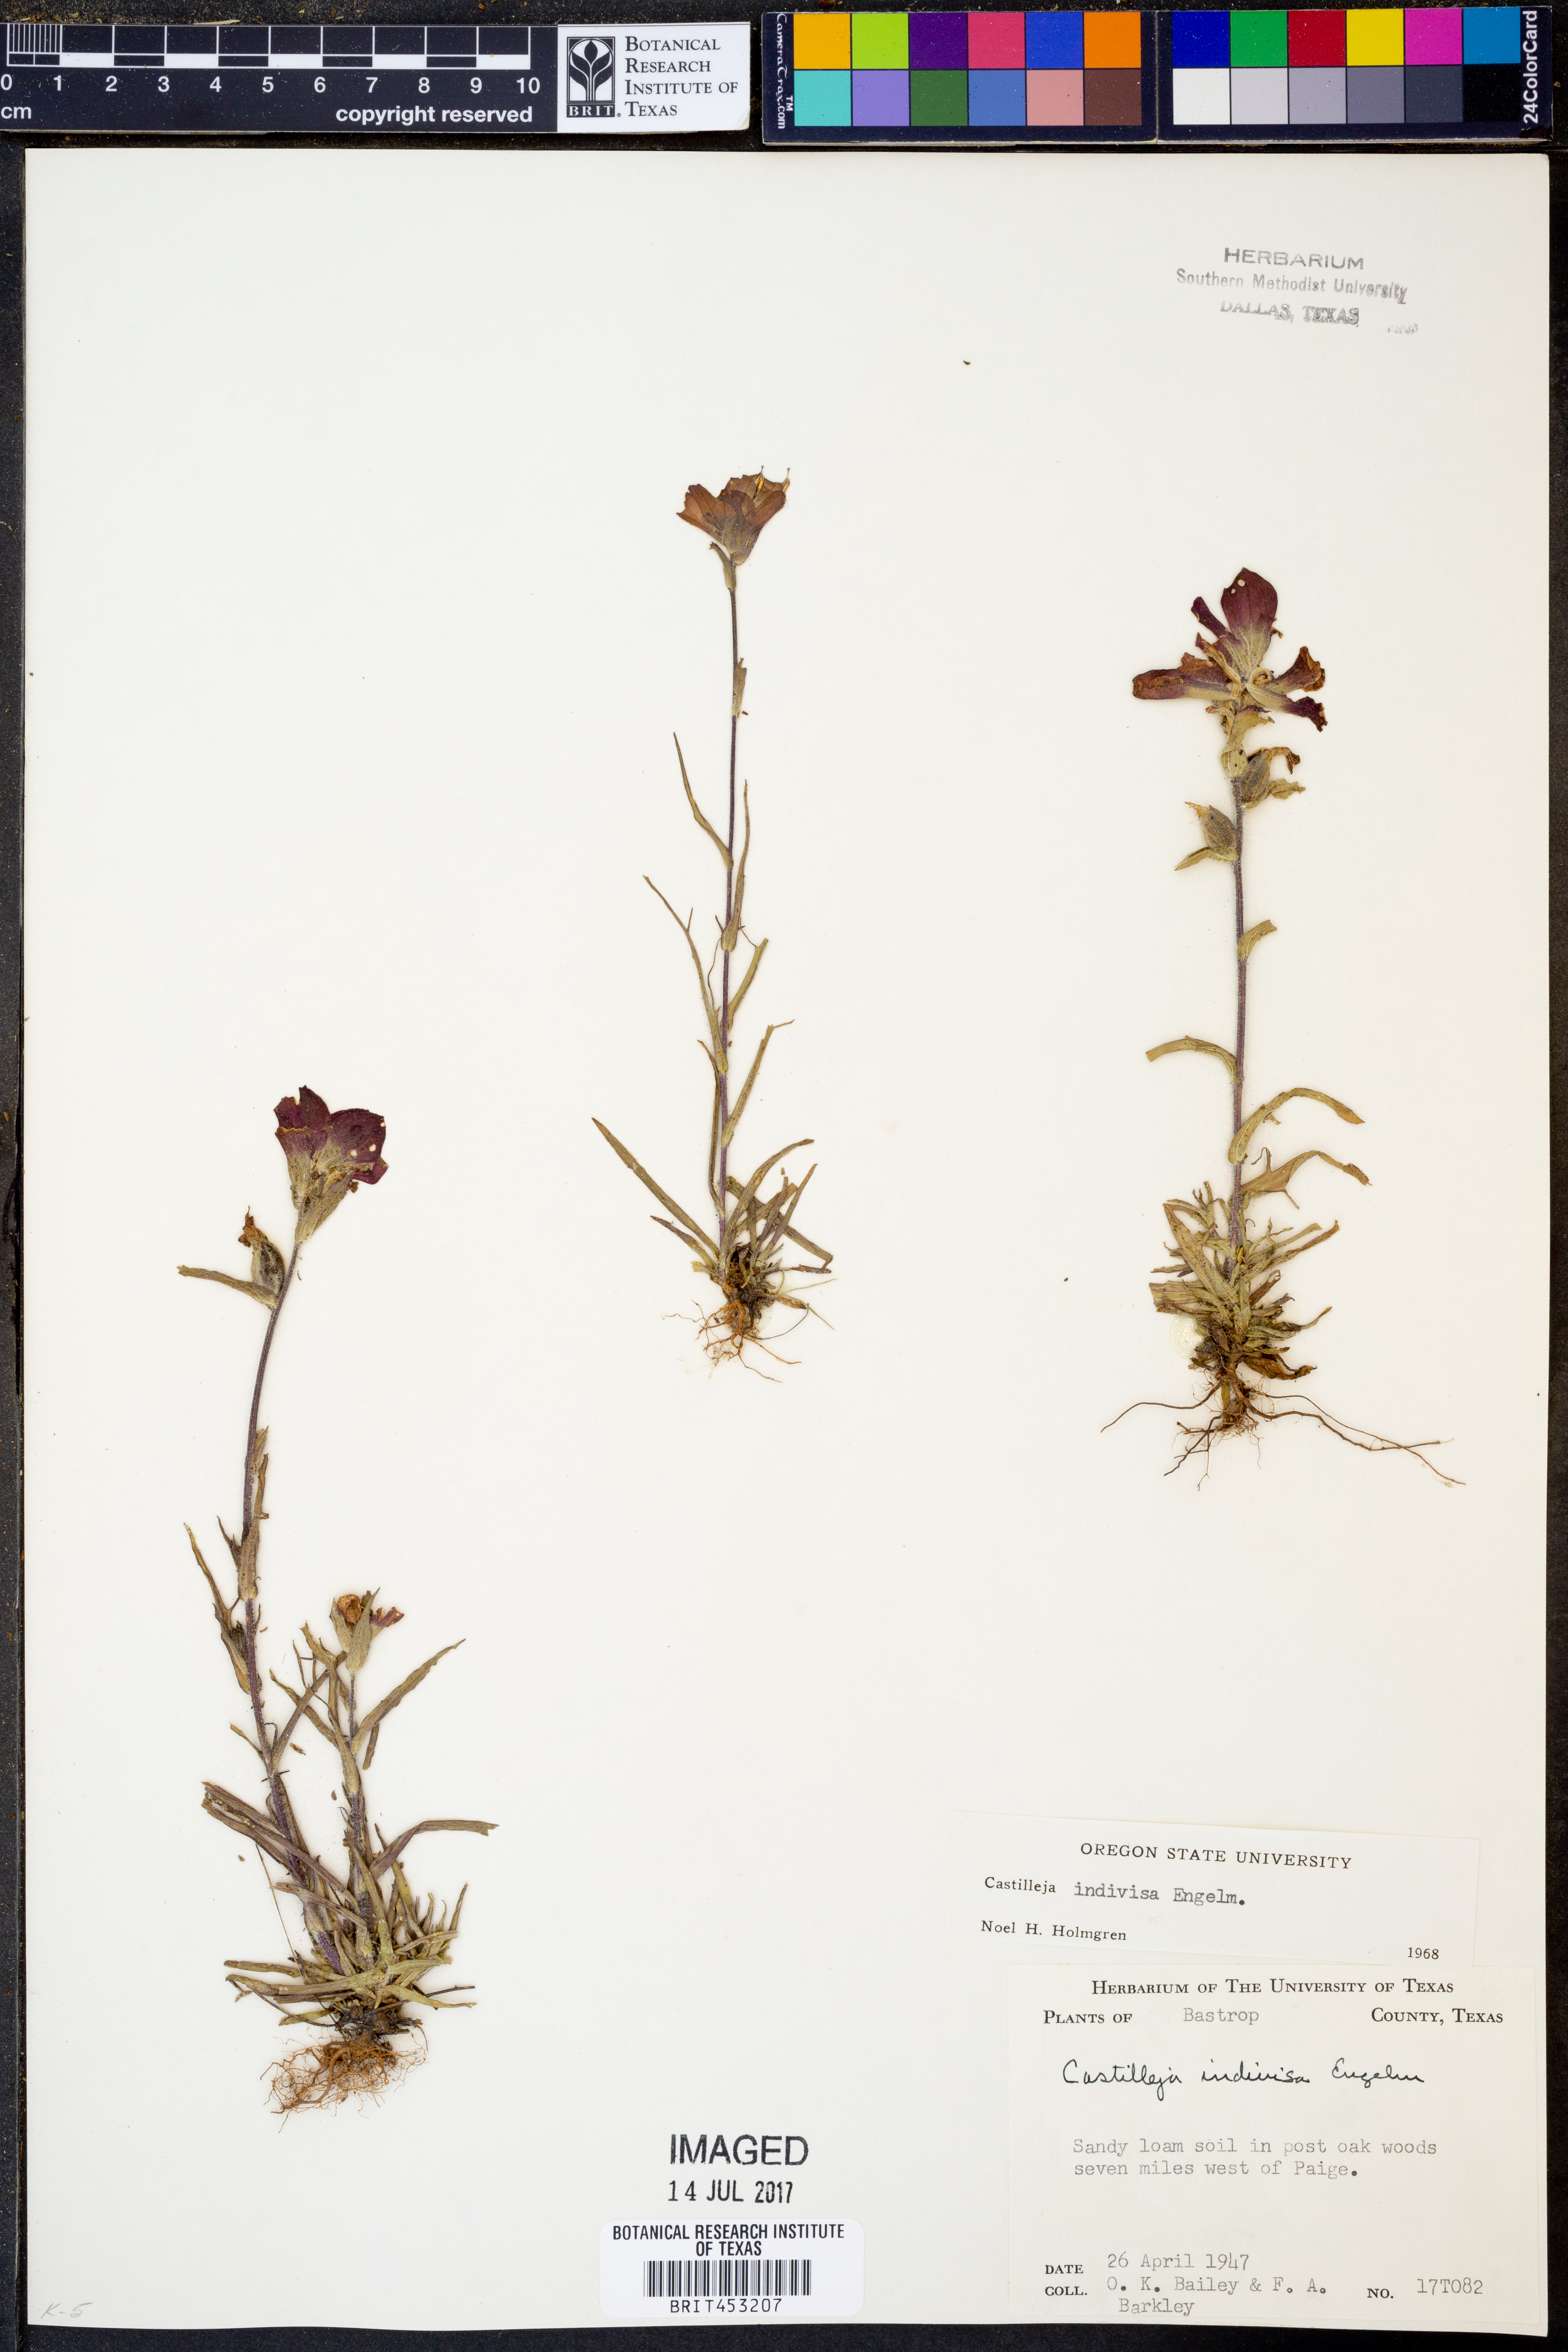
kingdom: Plantae
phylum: Tracheophyta
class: Magnoliopsida
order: Lamiales
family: Orobanchaceae
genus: Castilleja
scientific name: Castilleja indivisa
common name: Texas paintbrush
